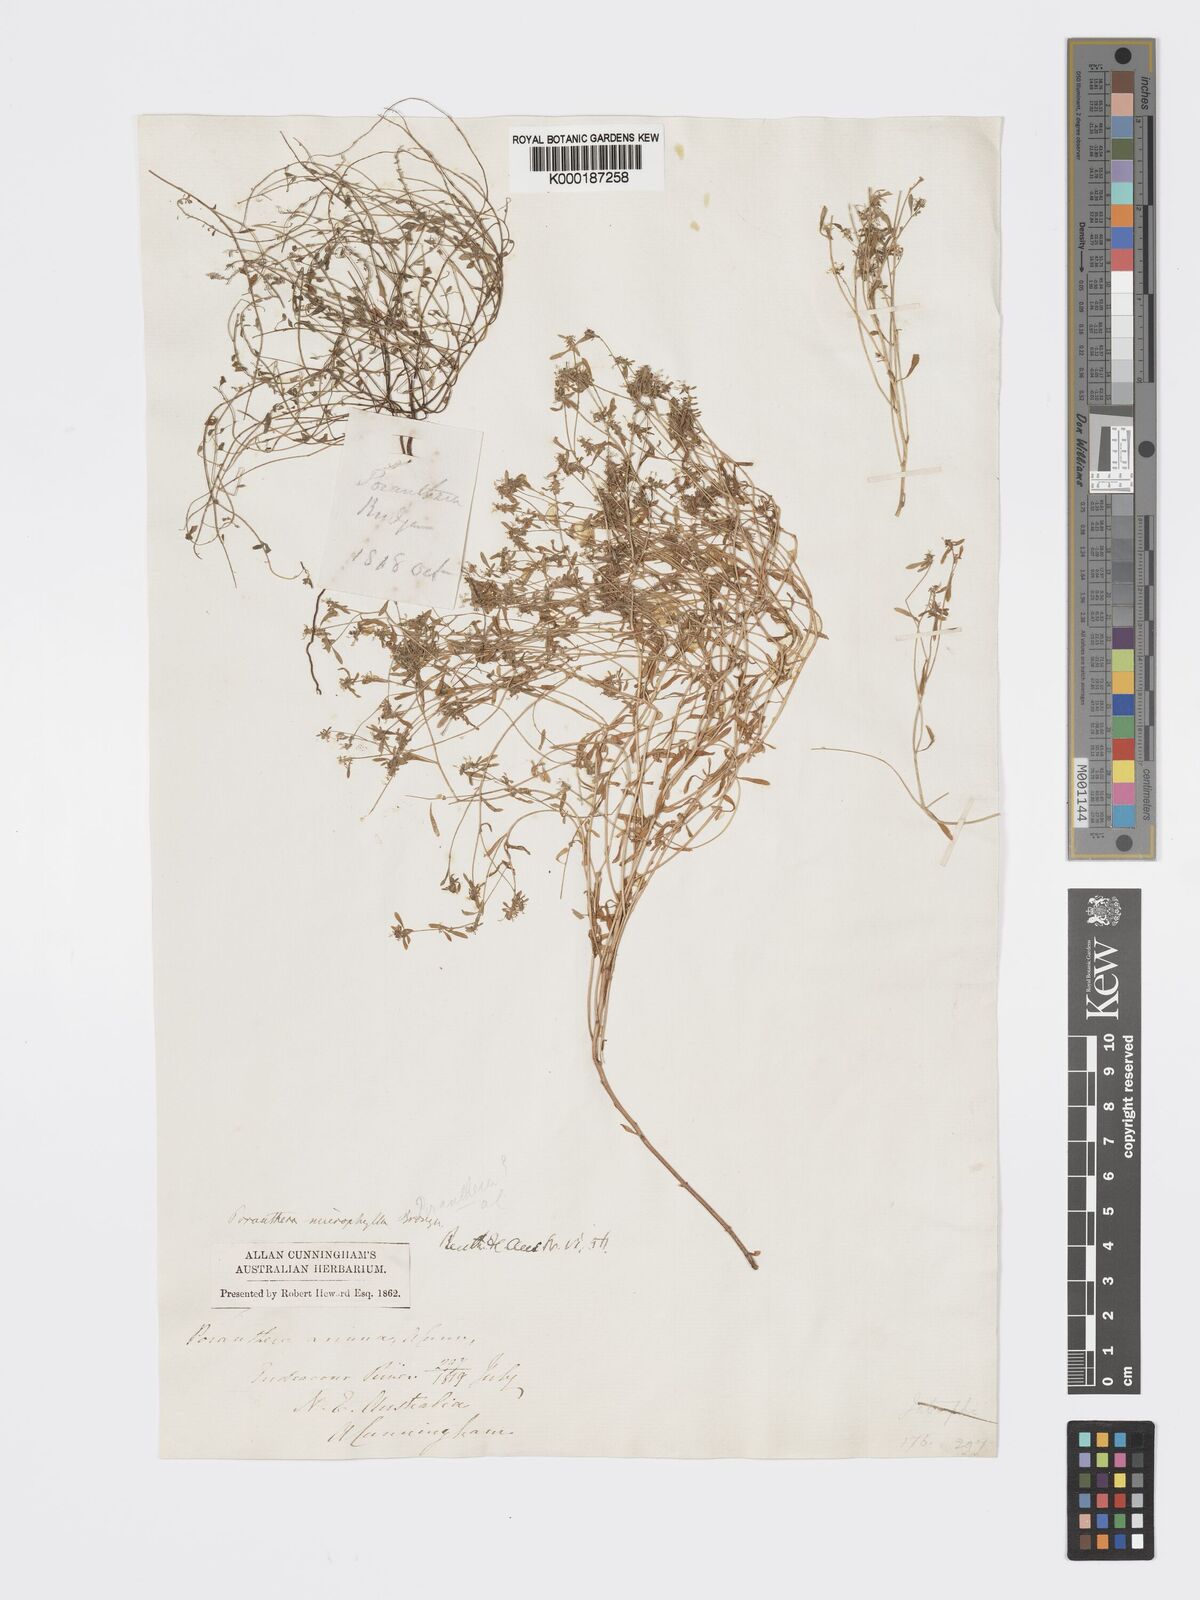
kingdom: Plantae
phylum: Tracheophyta
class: Magnoliopsida
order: Malpighiales
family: Phyllanthaceae
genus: Poranthera
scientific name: Poranthera microphylla
